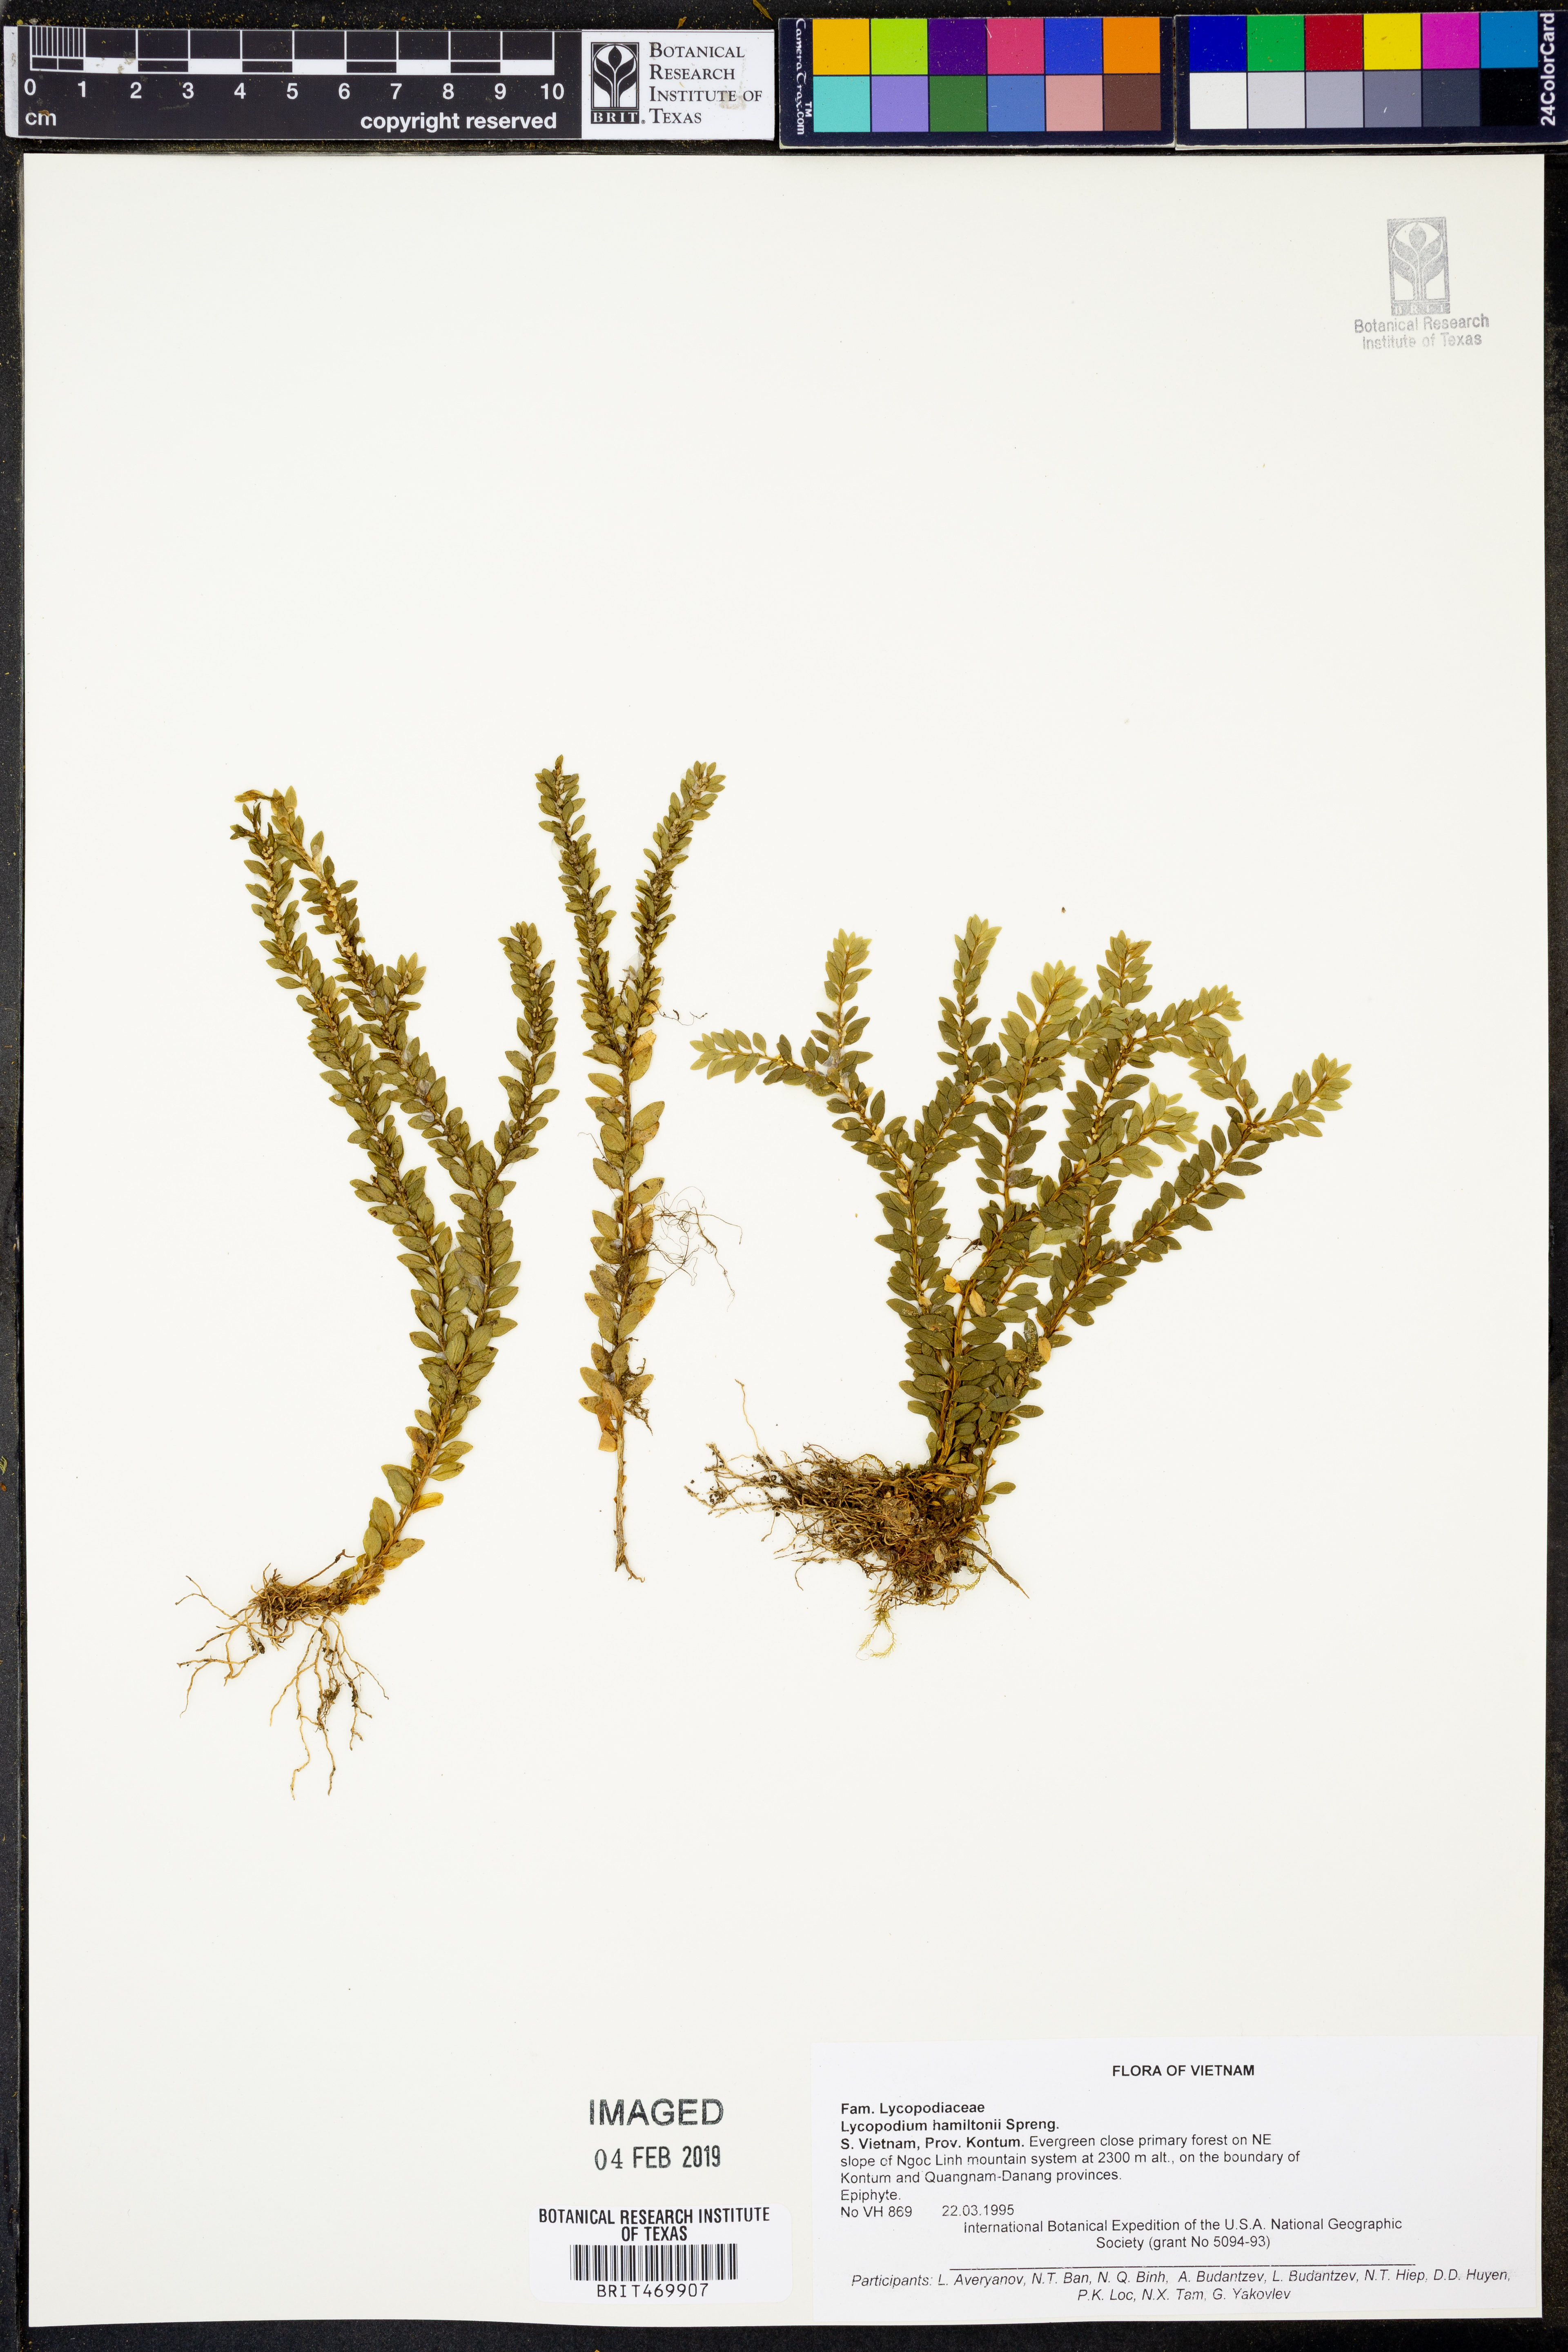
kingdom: Plantae
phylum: Tracheophyta
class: Lycopodiopsida
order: Lycopodiales
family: Lycopodiaceae
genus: Phlegmariurus
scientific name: Phlegmariurus hamiltonii
